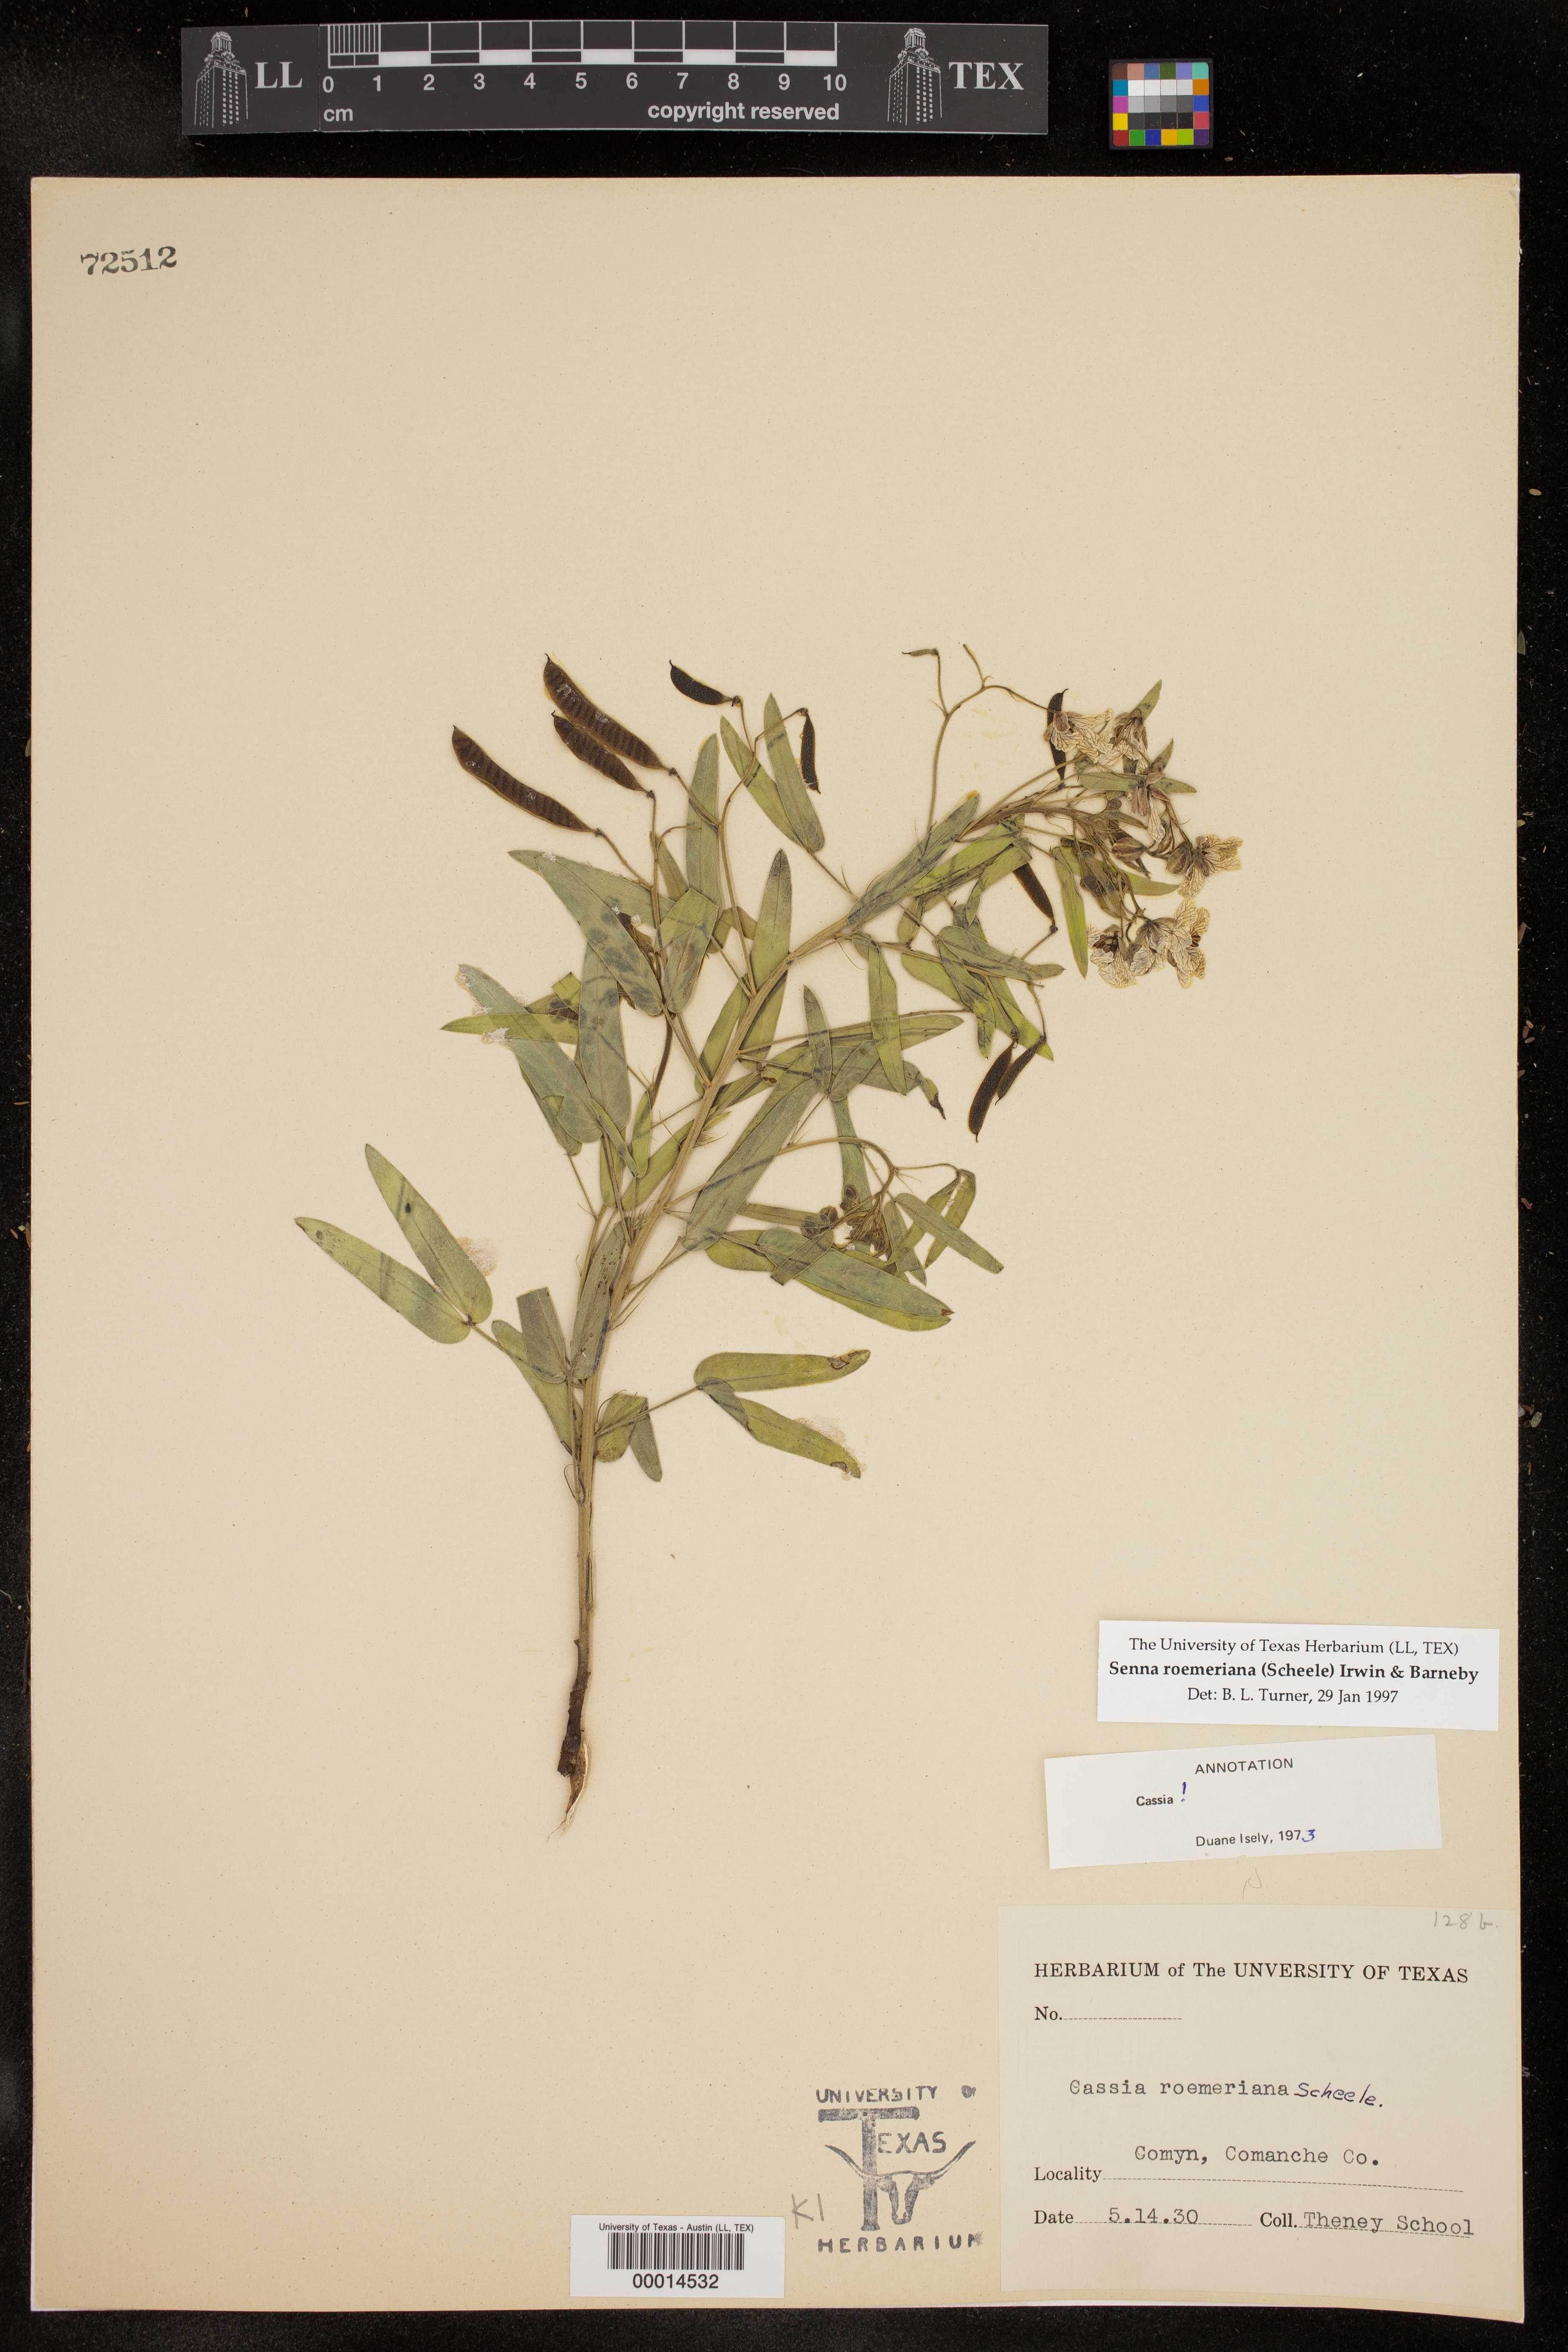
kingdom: Plantae
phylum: Tracheophyta
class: Magnoliopsida
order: Fabales
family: Fabaceae
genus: Senna
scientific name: Senna roemeriana
